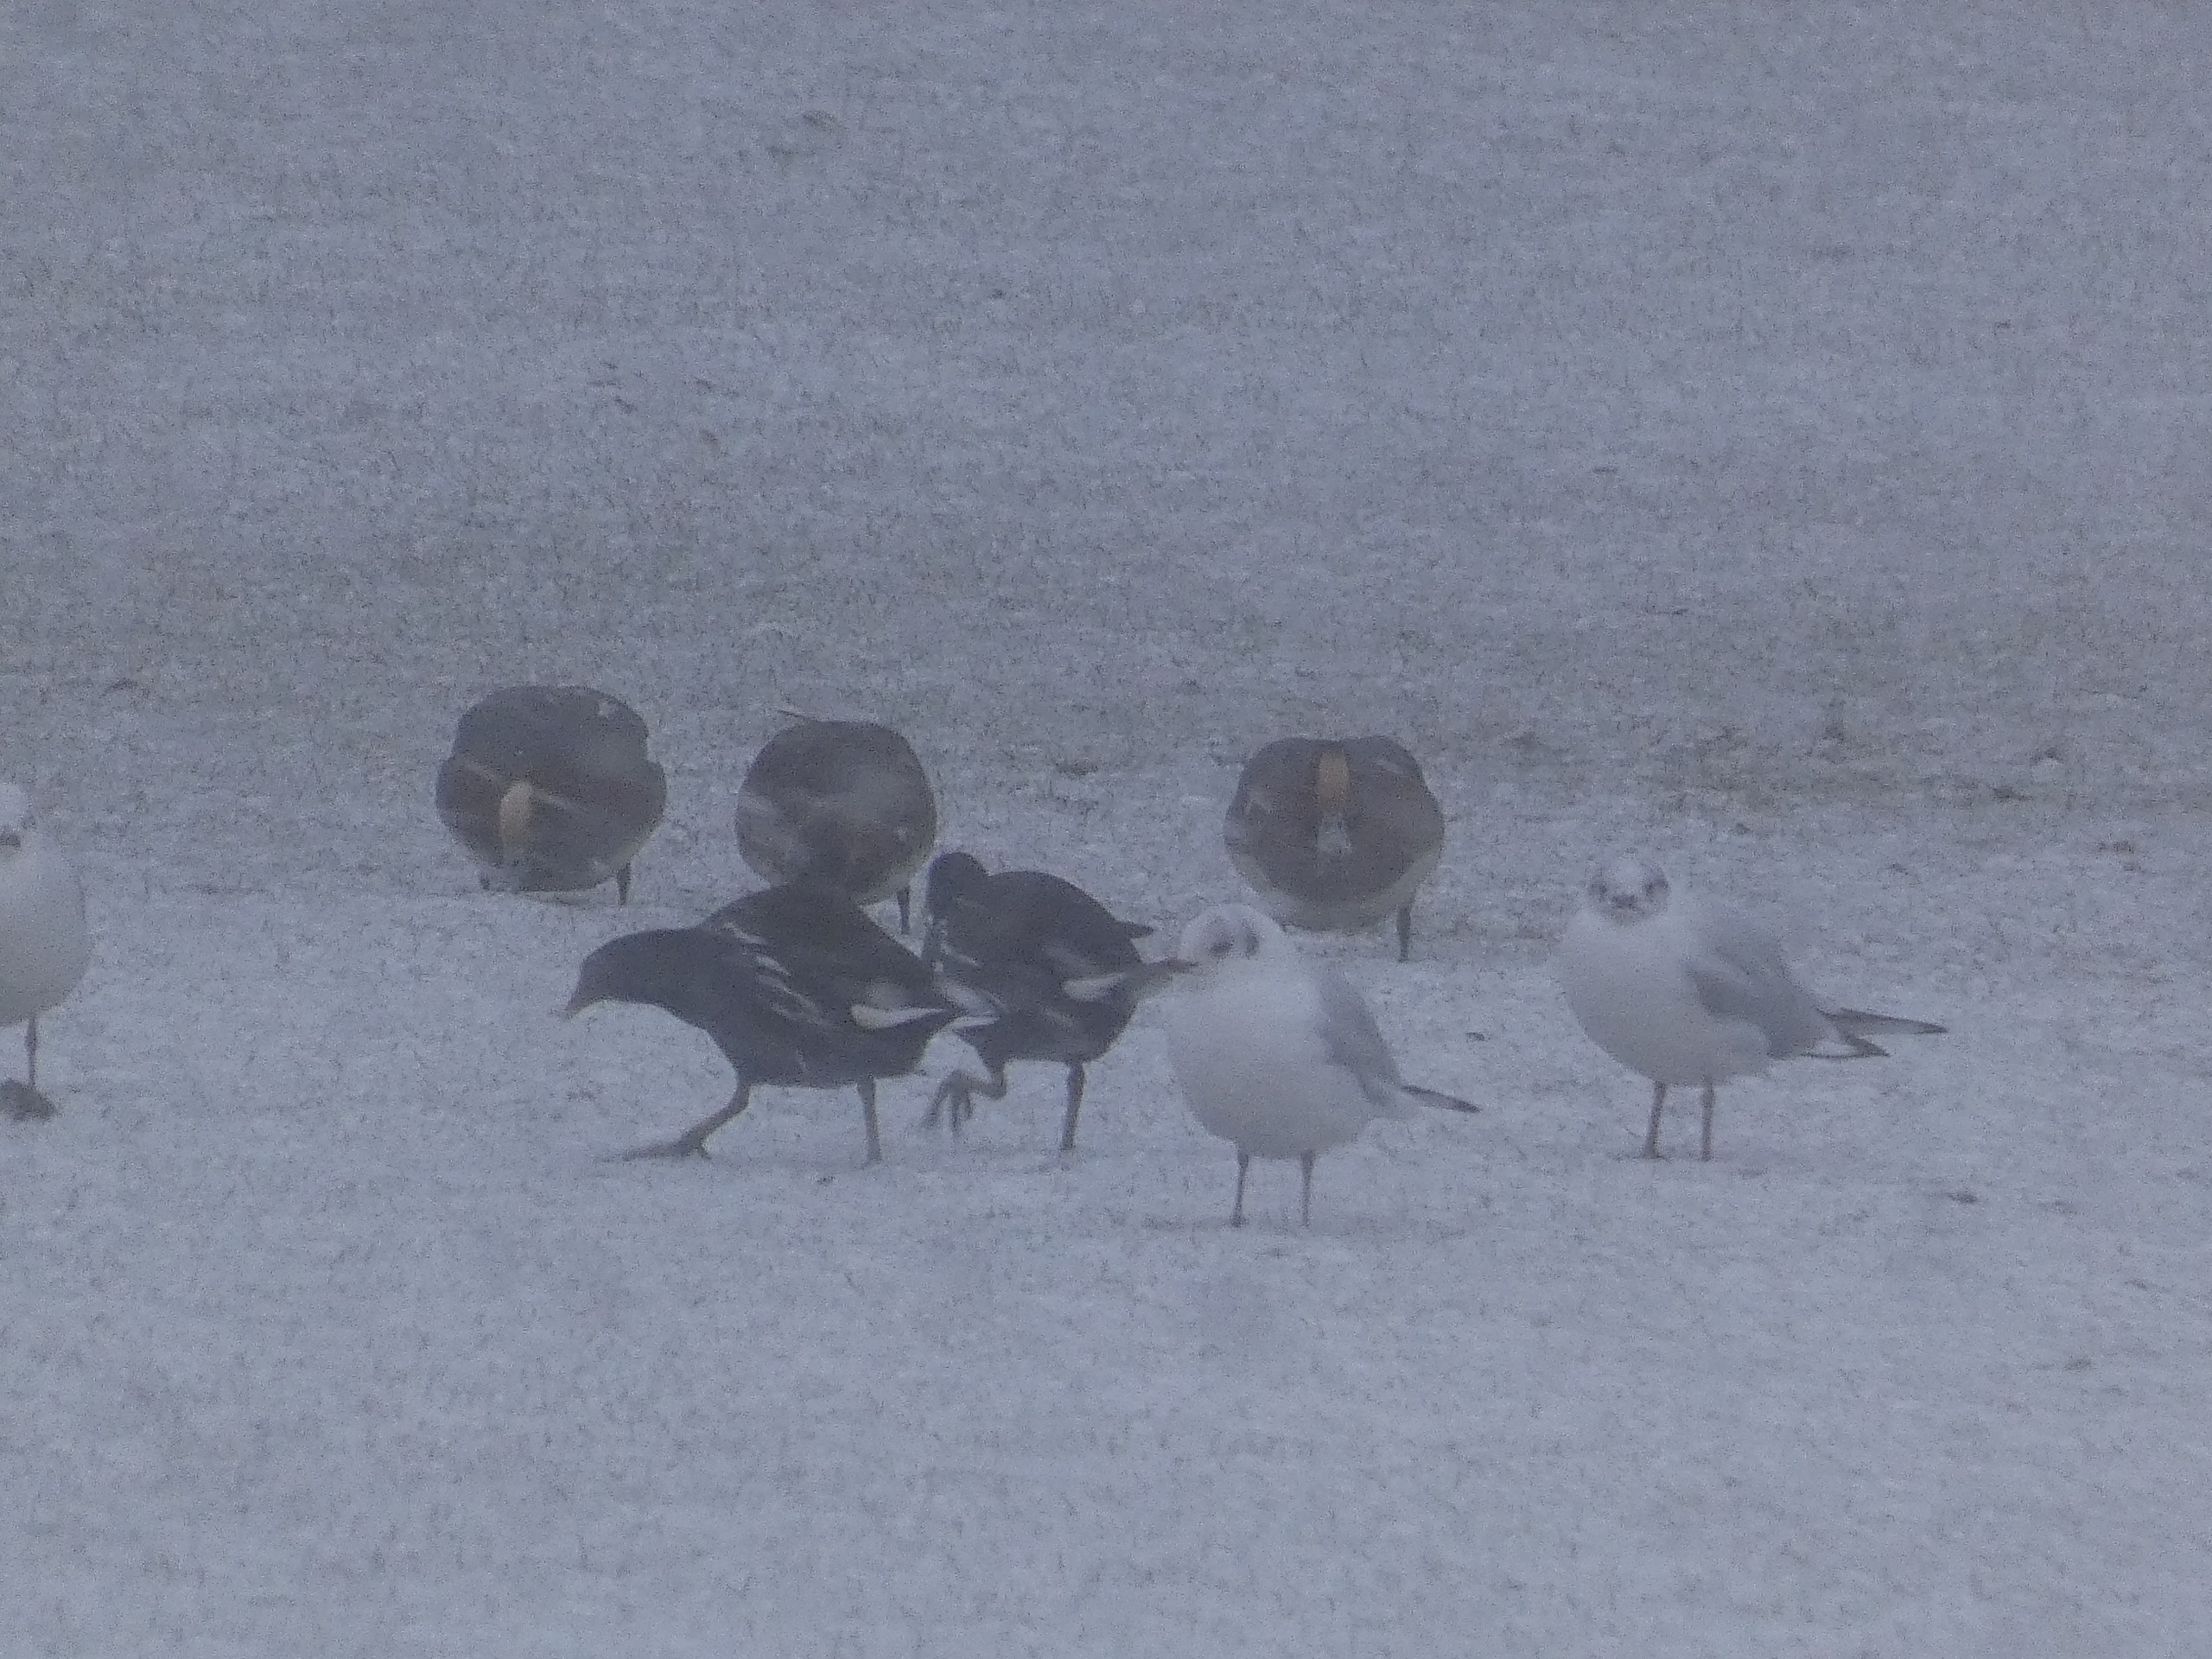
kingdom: Animalia
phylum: Chordata
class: Aves
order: Anseriformes
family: Anatidae
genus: Mareca
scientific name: Mareca penelope
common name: Pibeand
